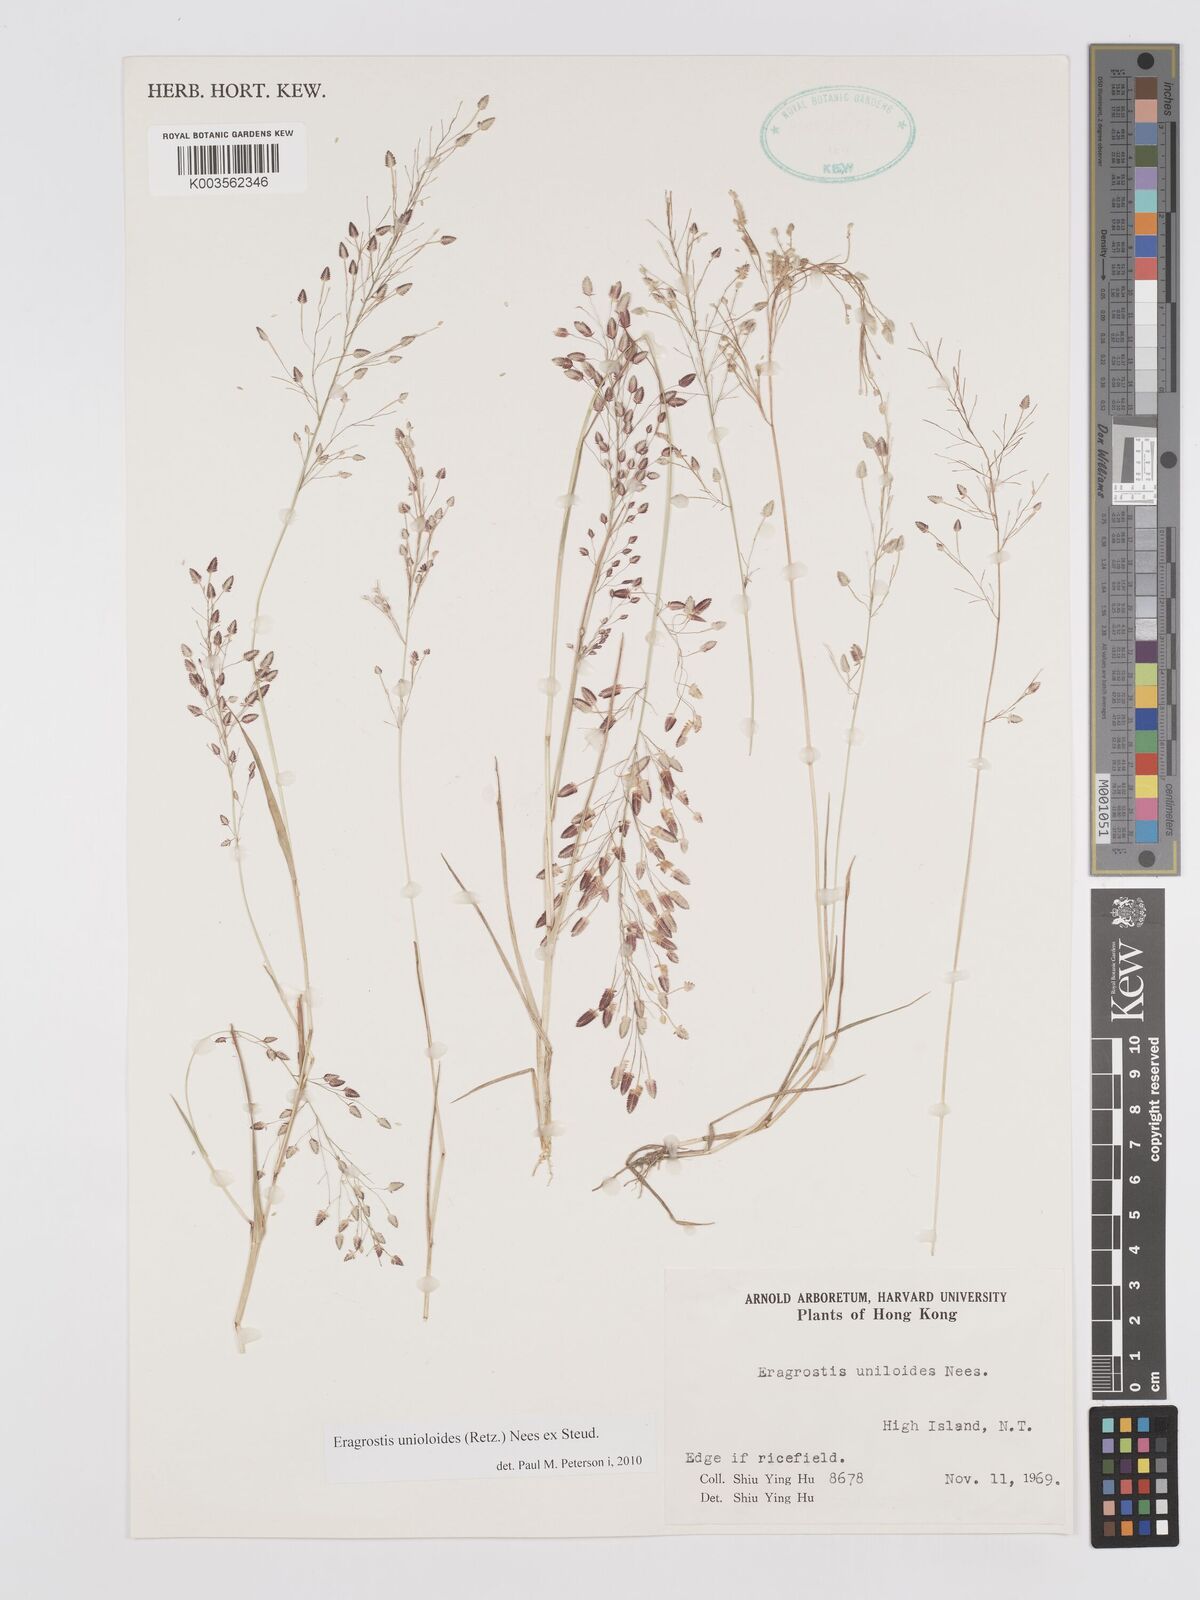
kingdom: Plantae
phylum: Tracheophyta
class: Liliopsida
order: Poales
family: Poaceae
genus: Eragrostis
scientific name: Eragrostis unioloides
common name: Chinese lovegrass
